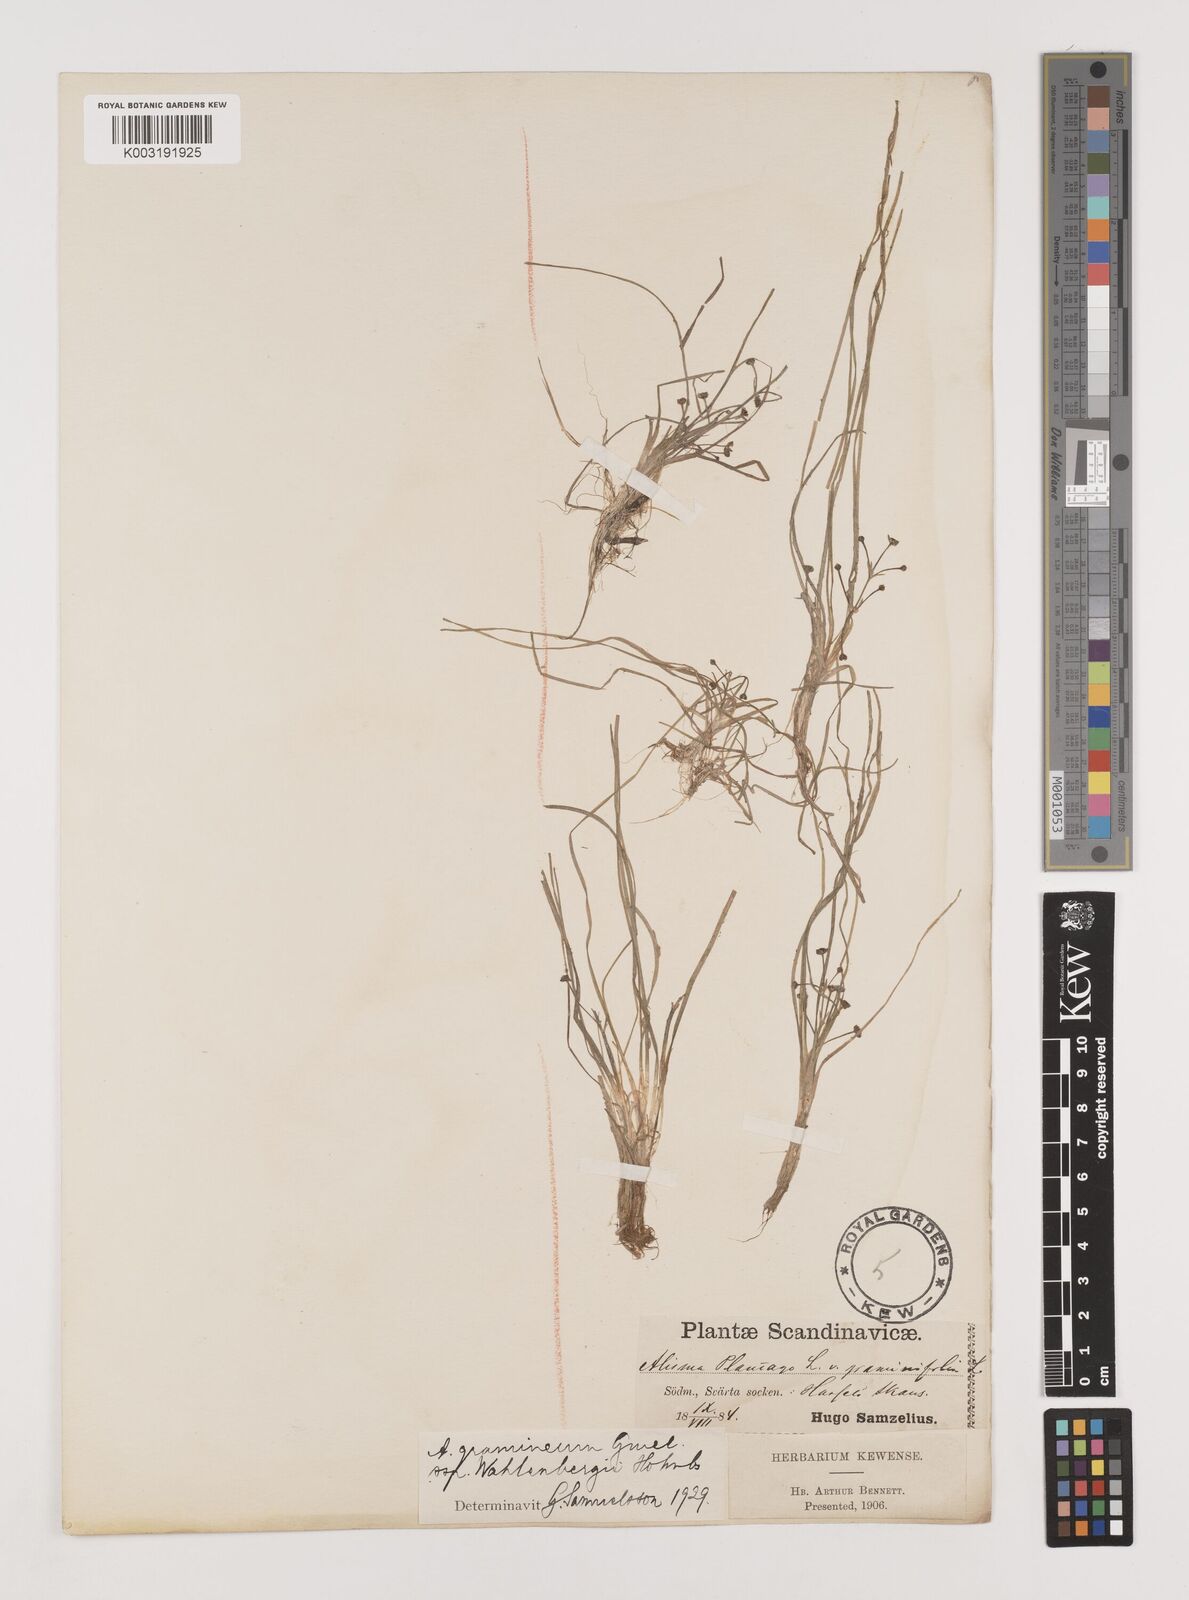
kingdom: Plantae
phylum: Tracheophyta
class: Liliopsida
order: Alismatales
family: Alismataceae
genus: Alisma
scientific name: Alisma wahlenbergii
